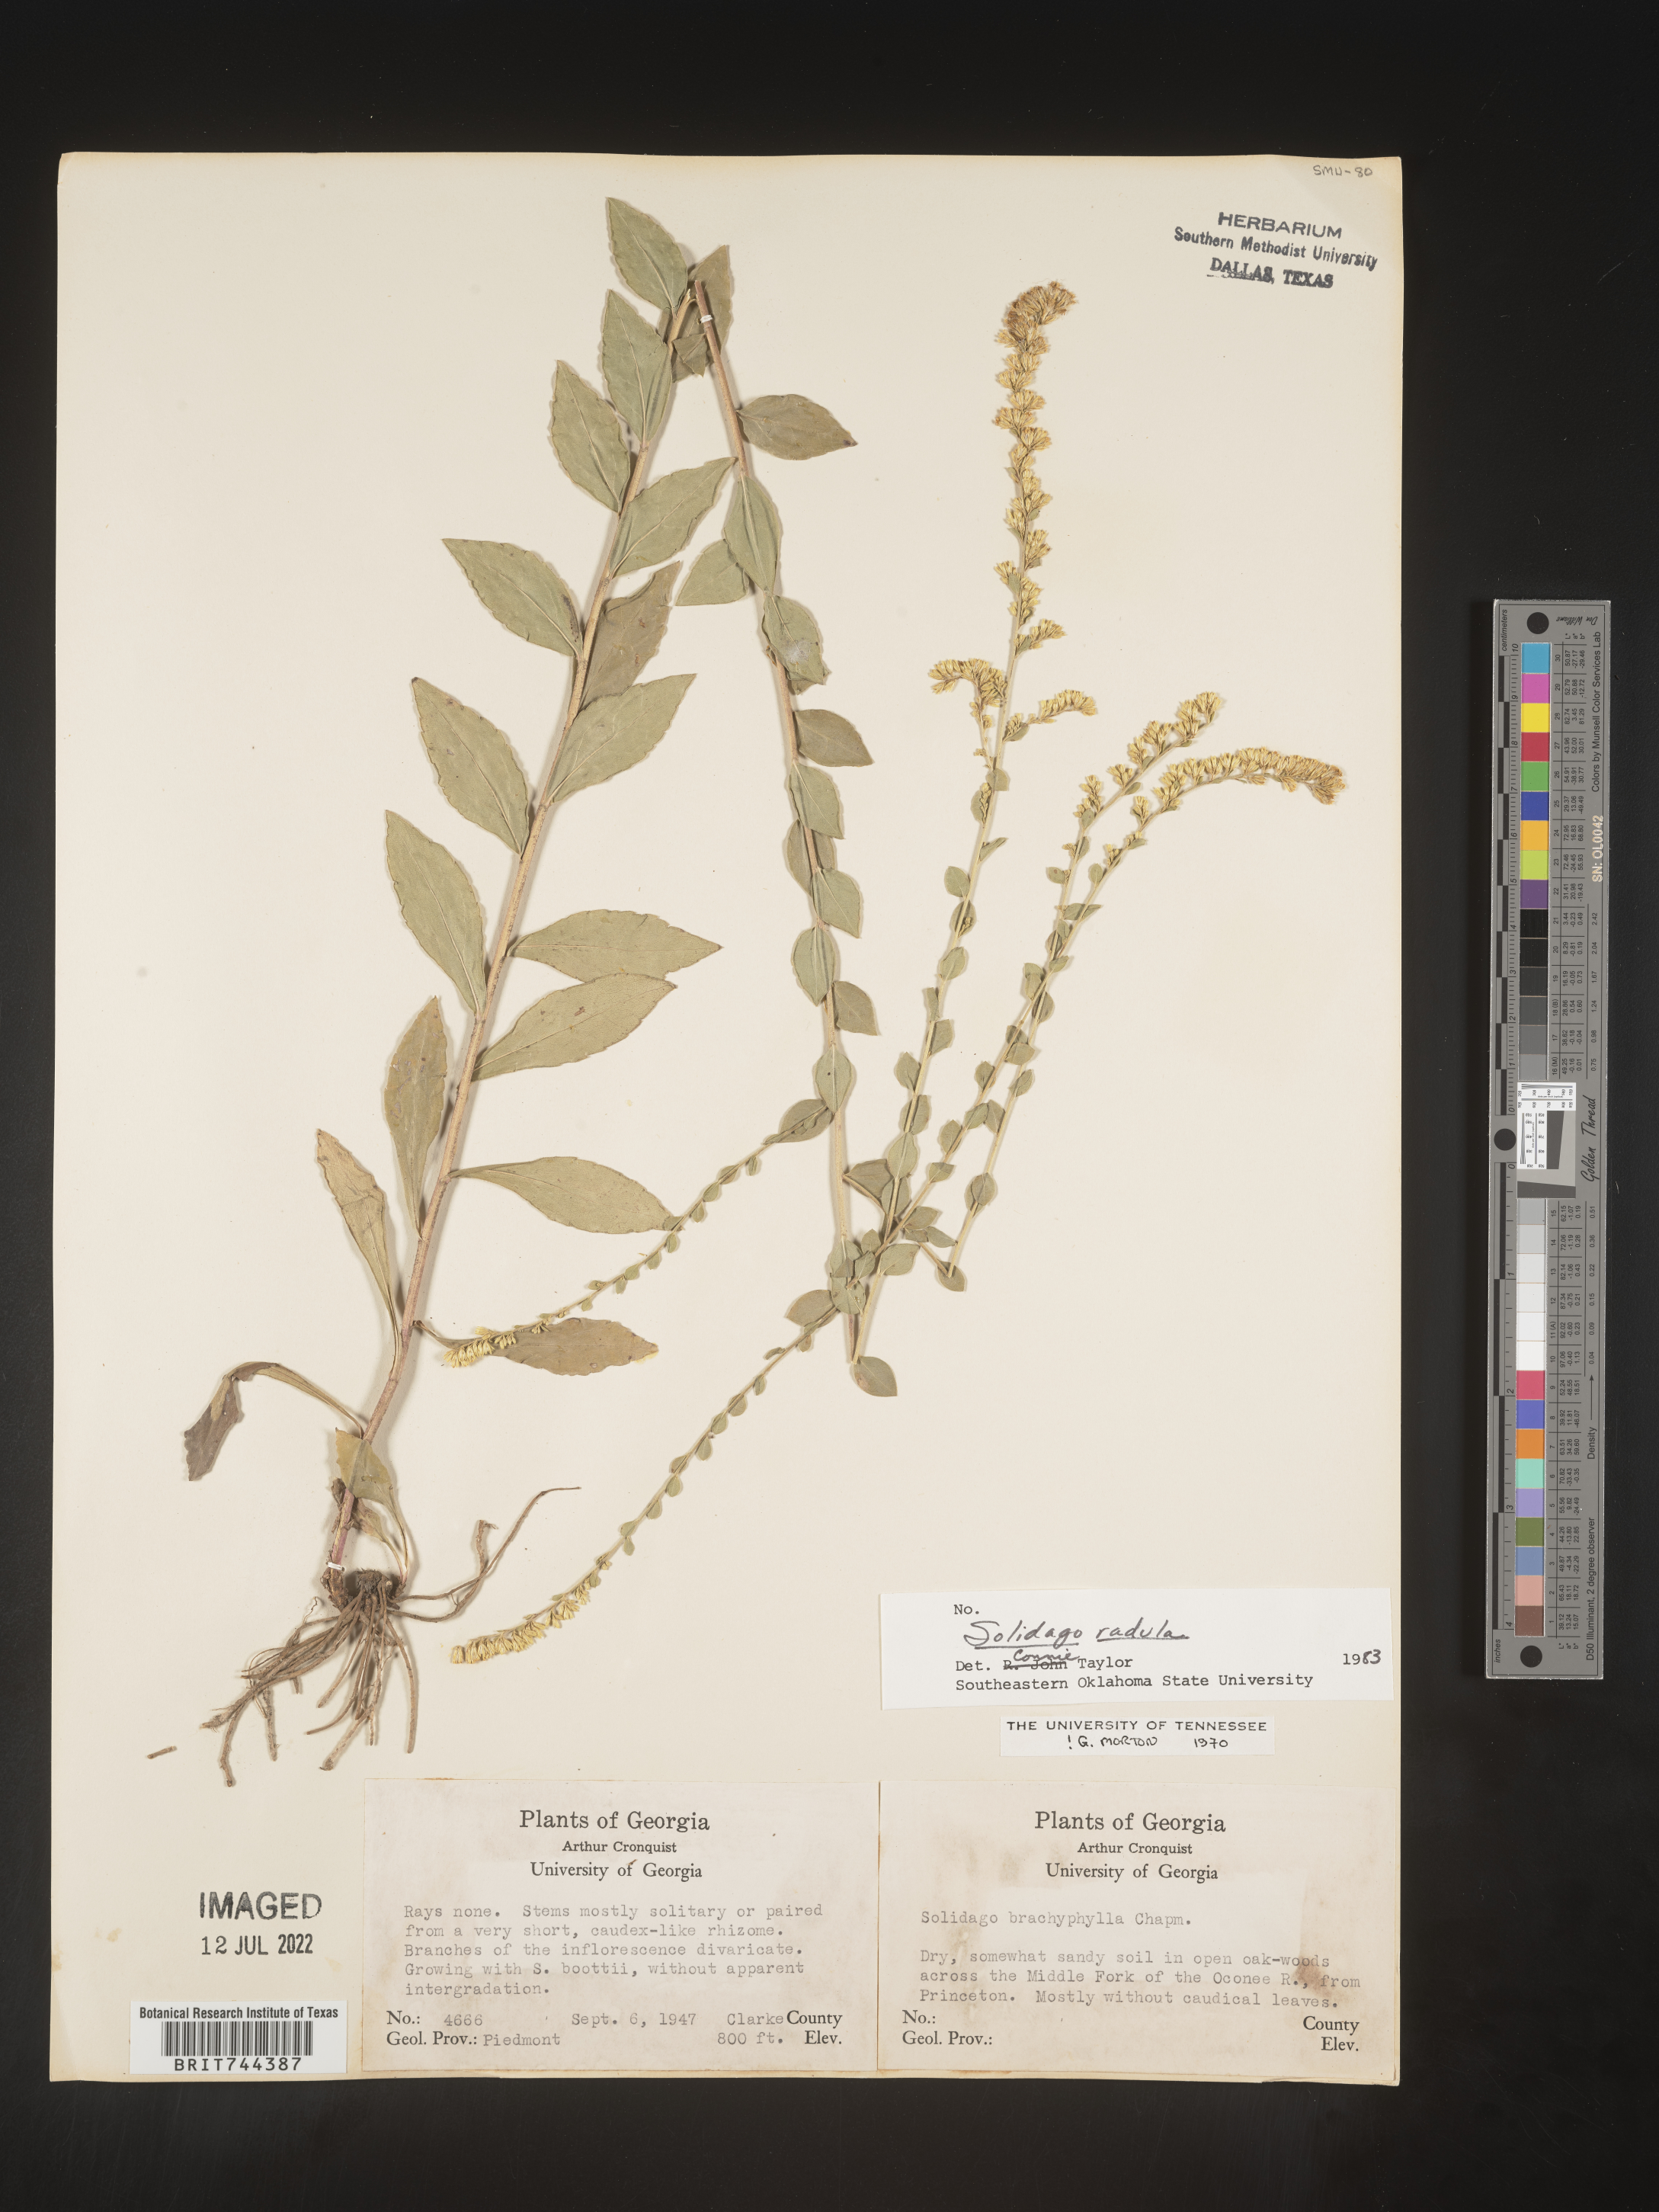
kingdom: Plantae
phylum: Tracheophyta
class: Magnoliopsida
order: Asterales
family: Asteraceae
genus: Solidago
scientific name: Solidago brachyphylla
